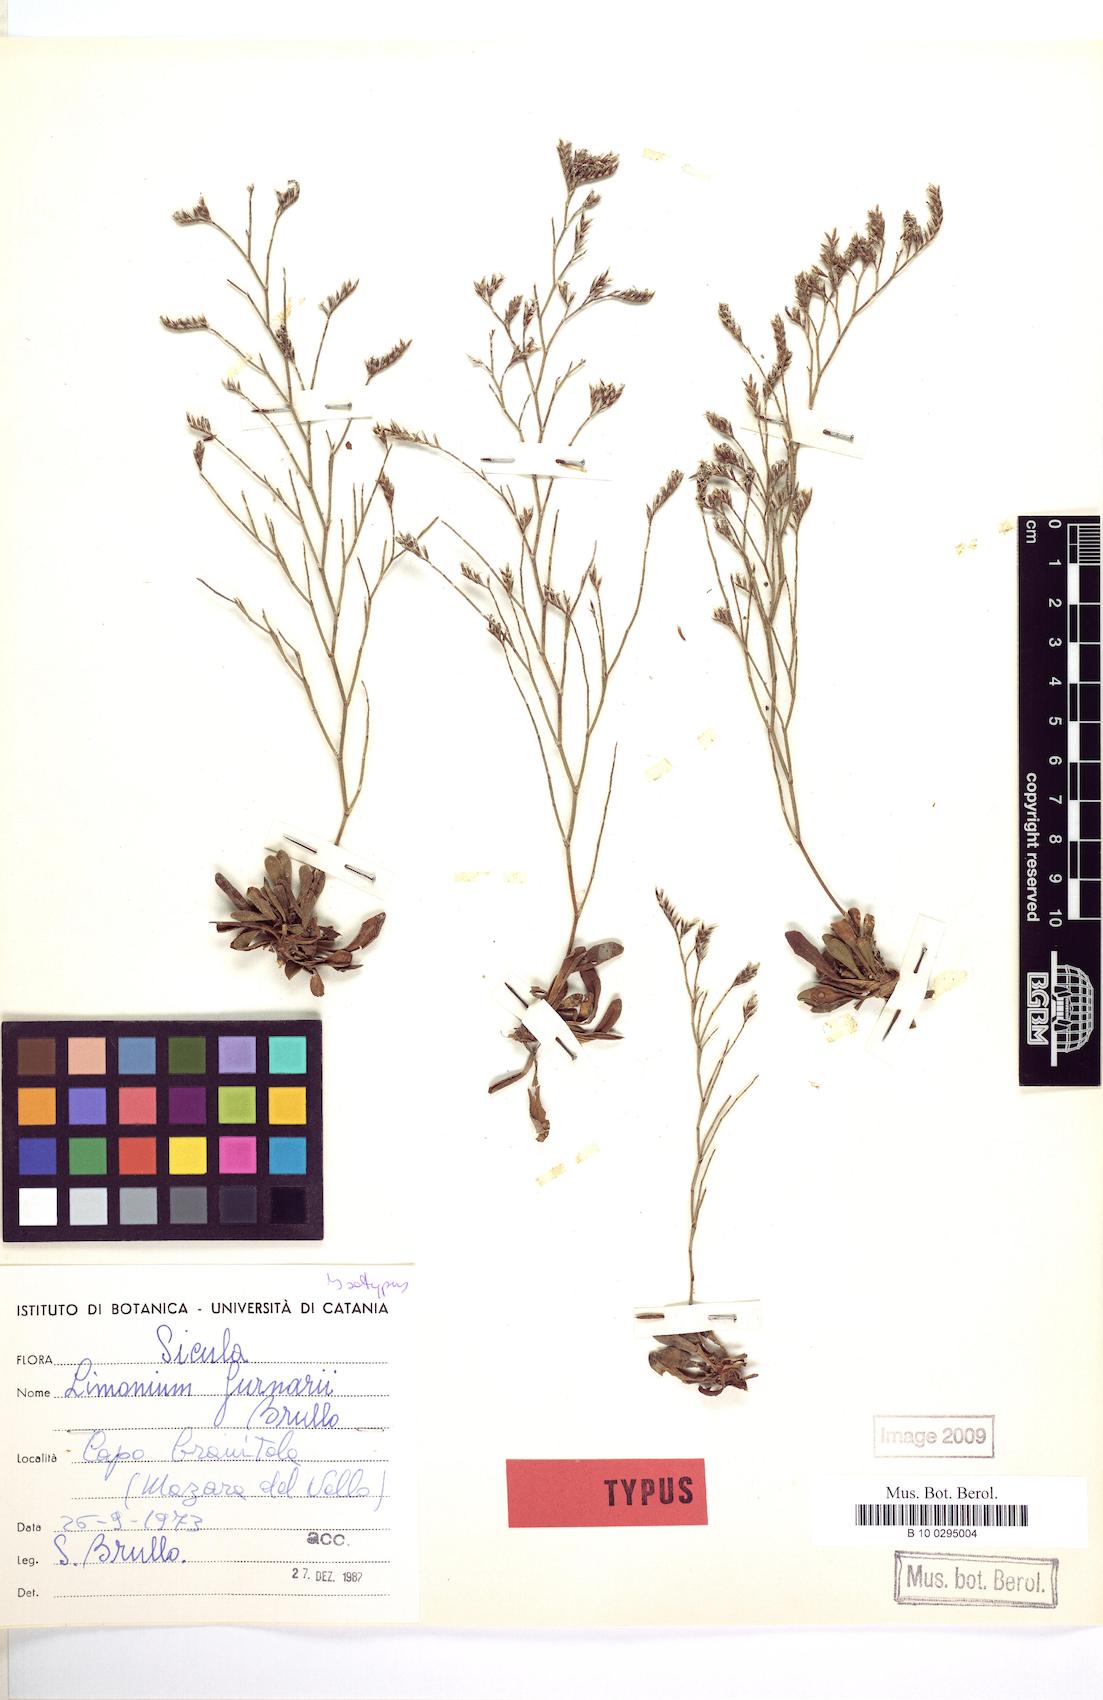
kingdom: Plantae
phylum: Tracheophyta
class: Magnoliopsida
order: Caryophyllales
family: Plumbaginaceae
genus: Limonium
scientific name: Limonium furnarii
